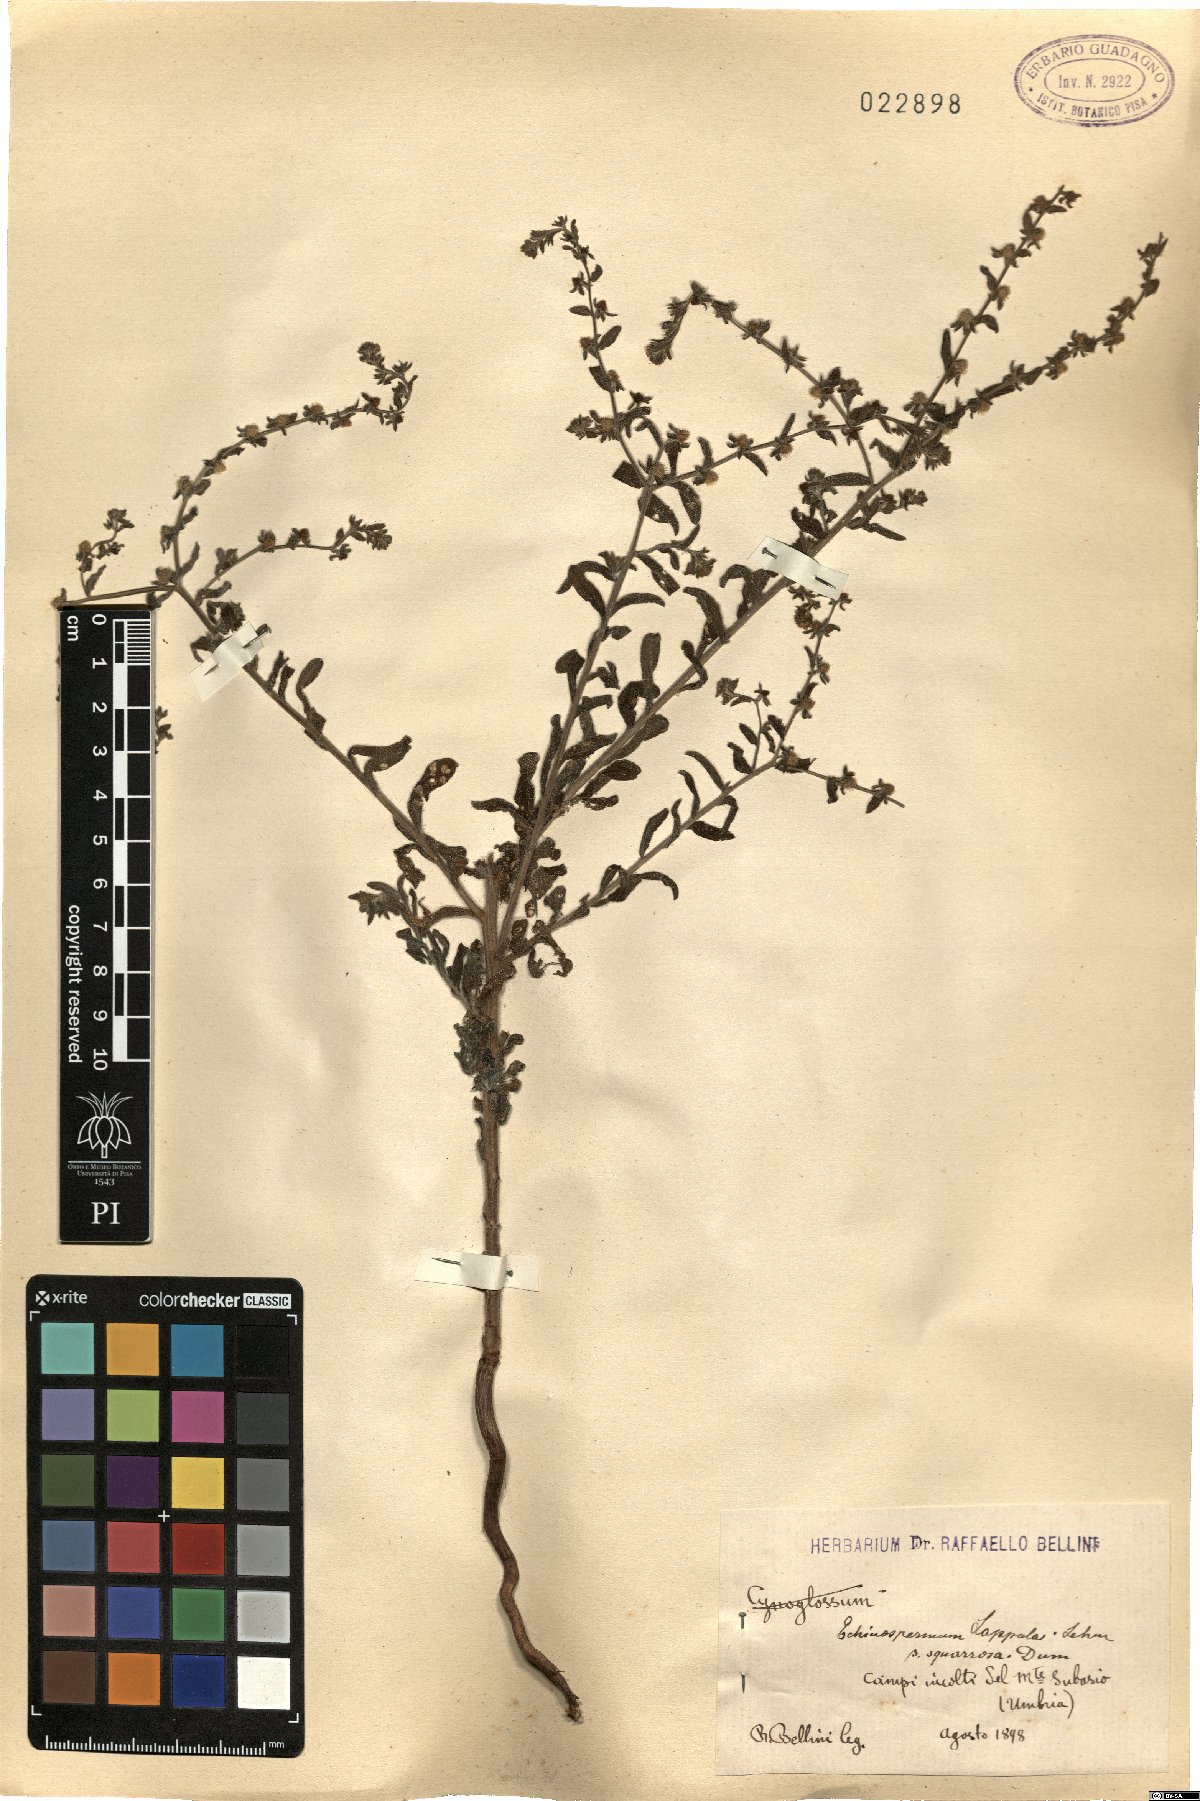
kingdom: Plantae
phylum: Tracheophyta
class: Magnoliopsida
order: Boraginales
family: Boraginaceae
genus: Lappula
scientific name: Lappula squarrosa
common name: European stickseed
